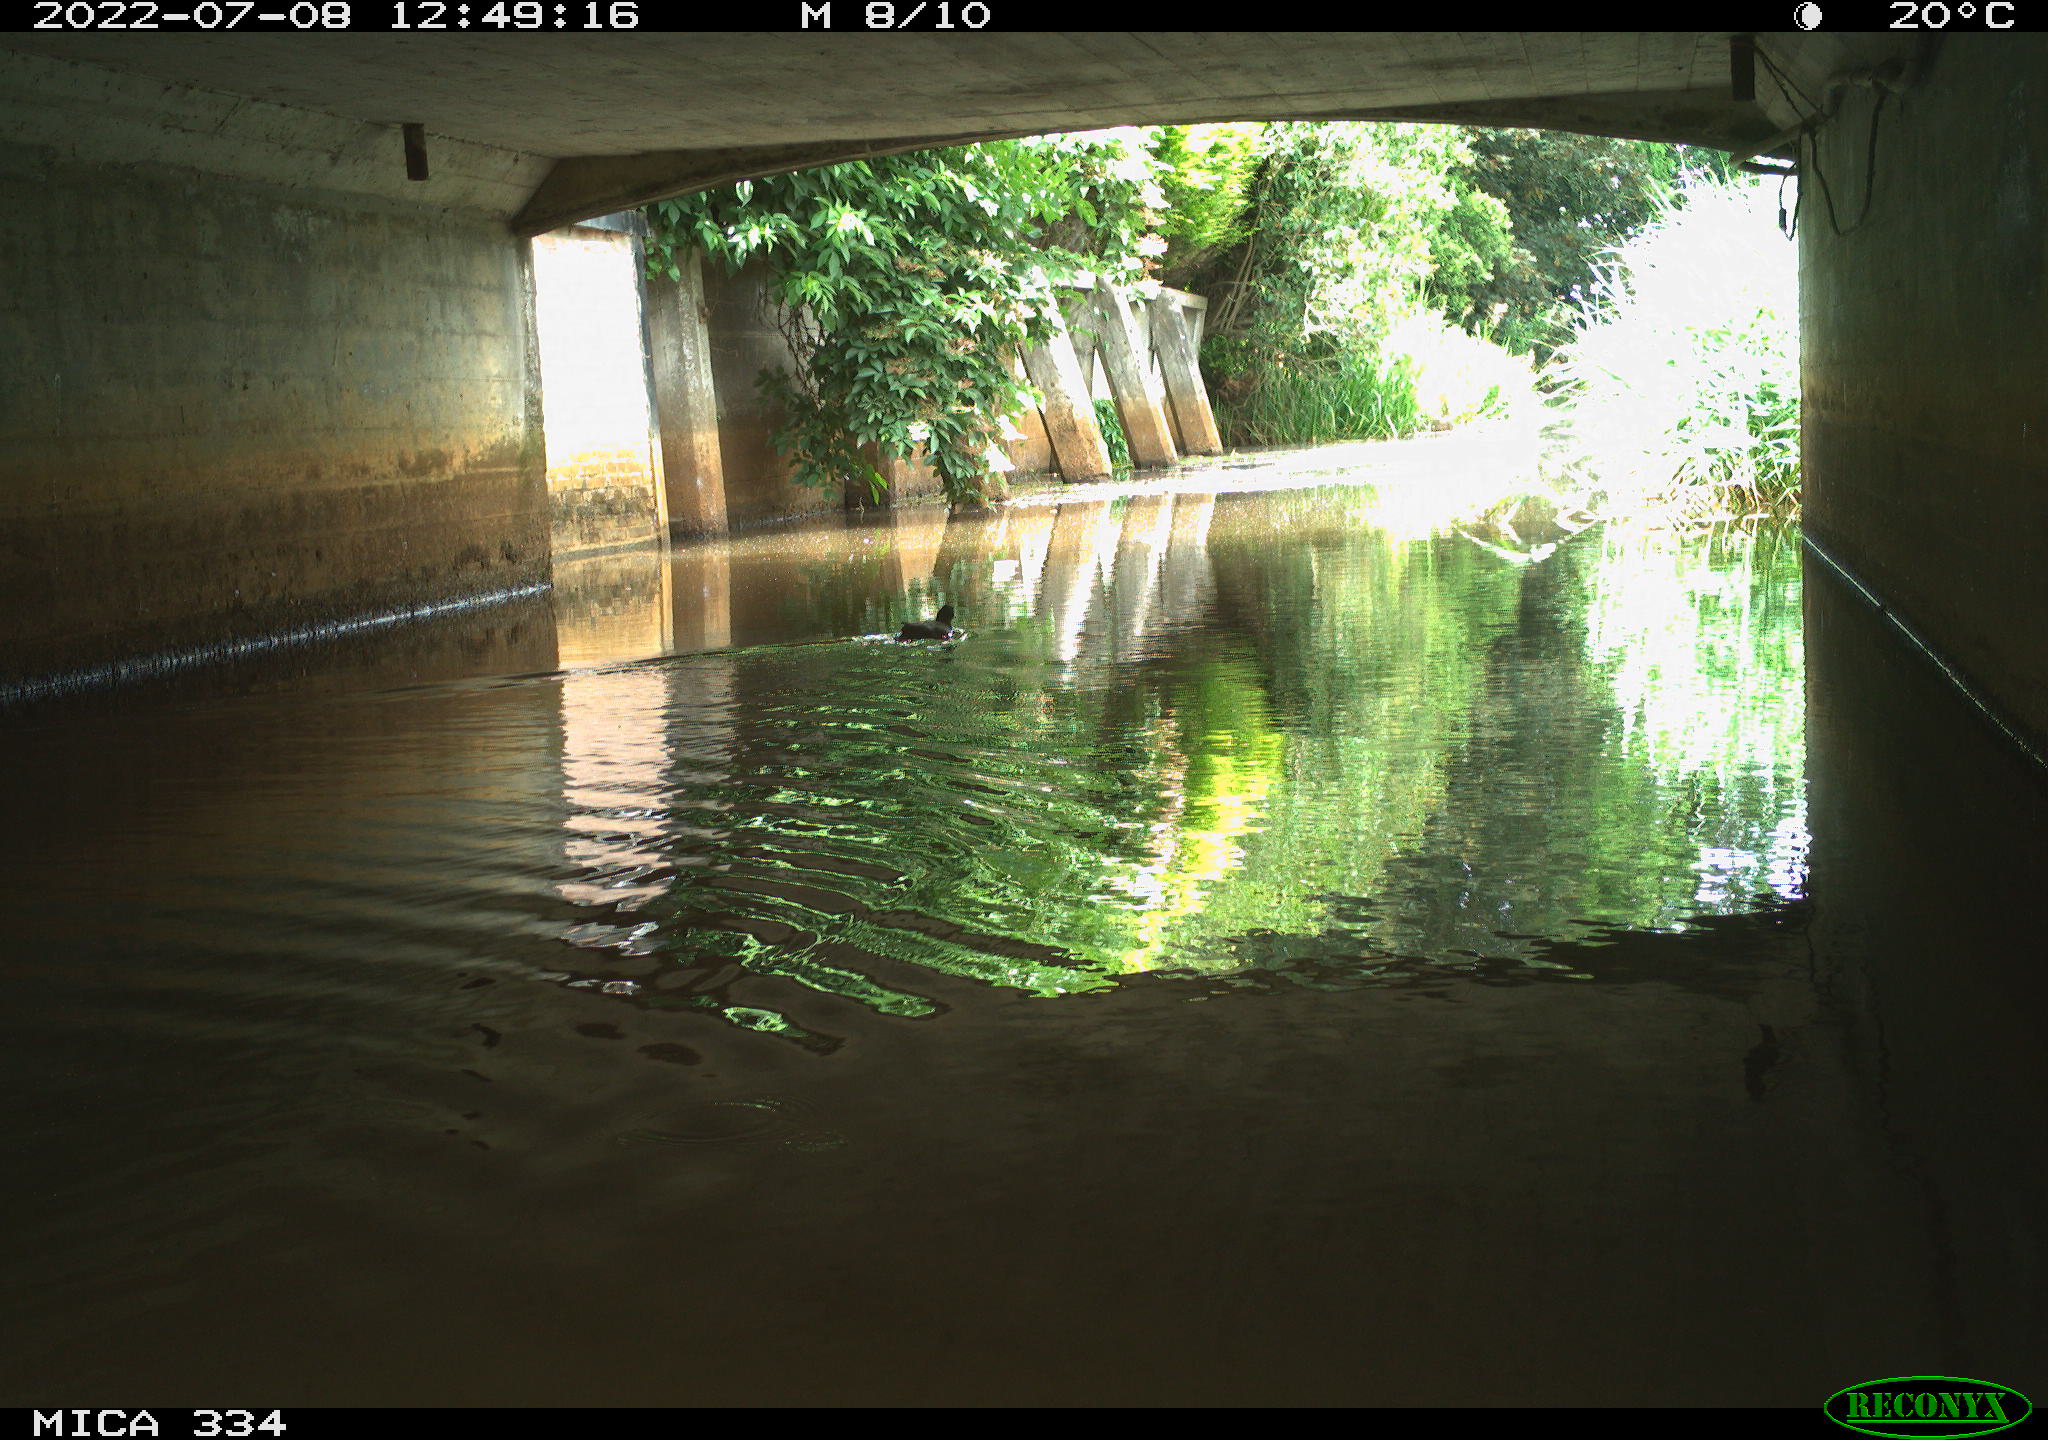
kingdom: Animalia
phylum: Chordata
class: Aves
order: Gruiformes
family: Rallidae
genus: Gallinula
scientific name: Gallinula chloropus
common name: Common moorhen
